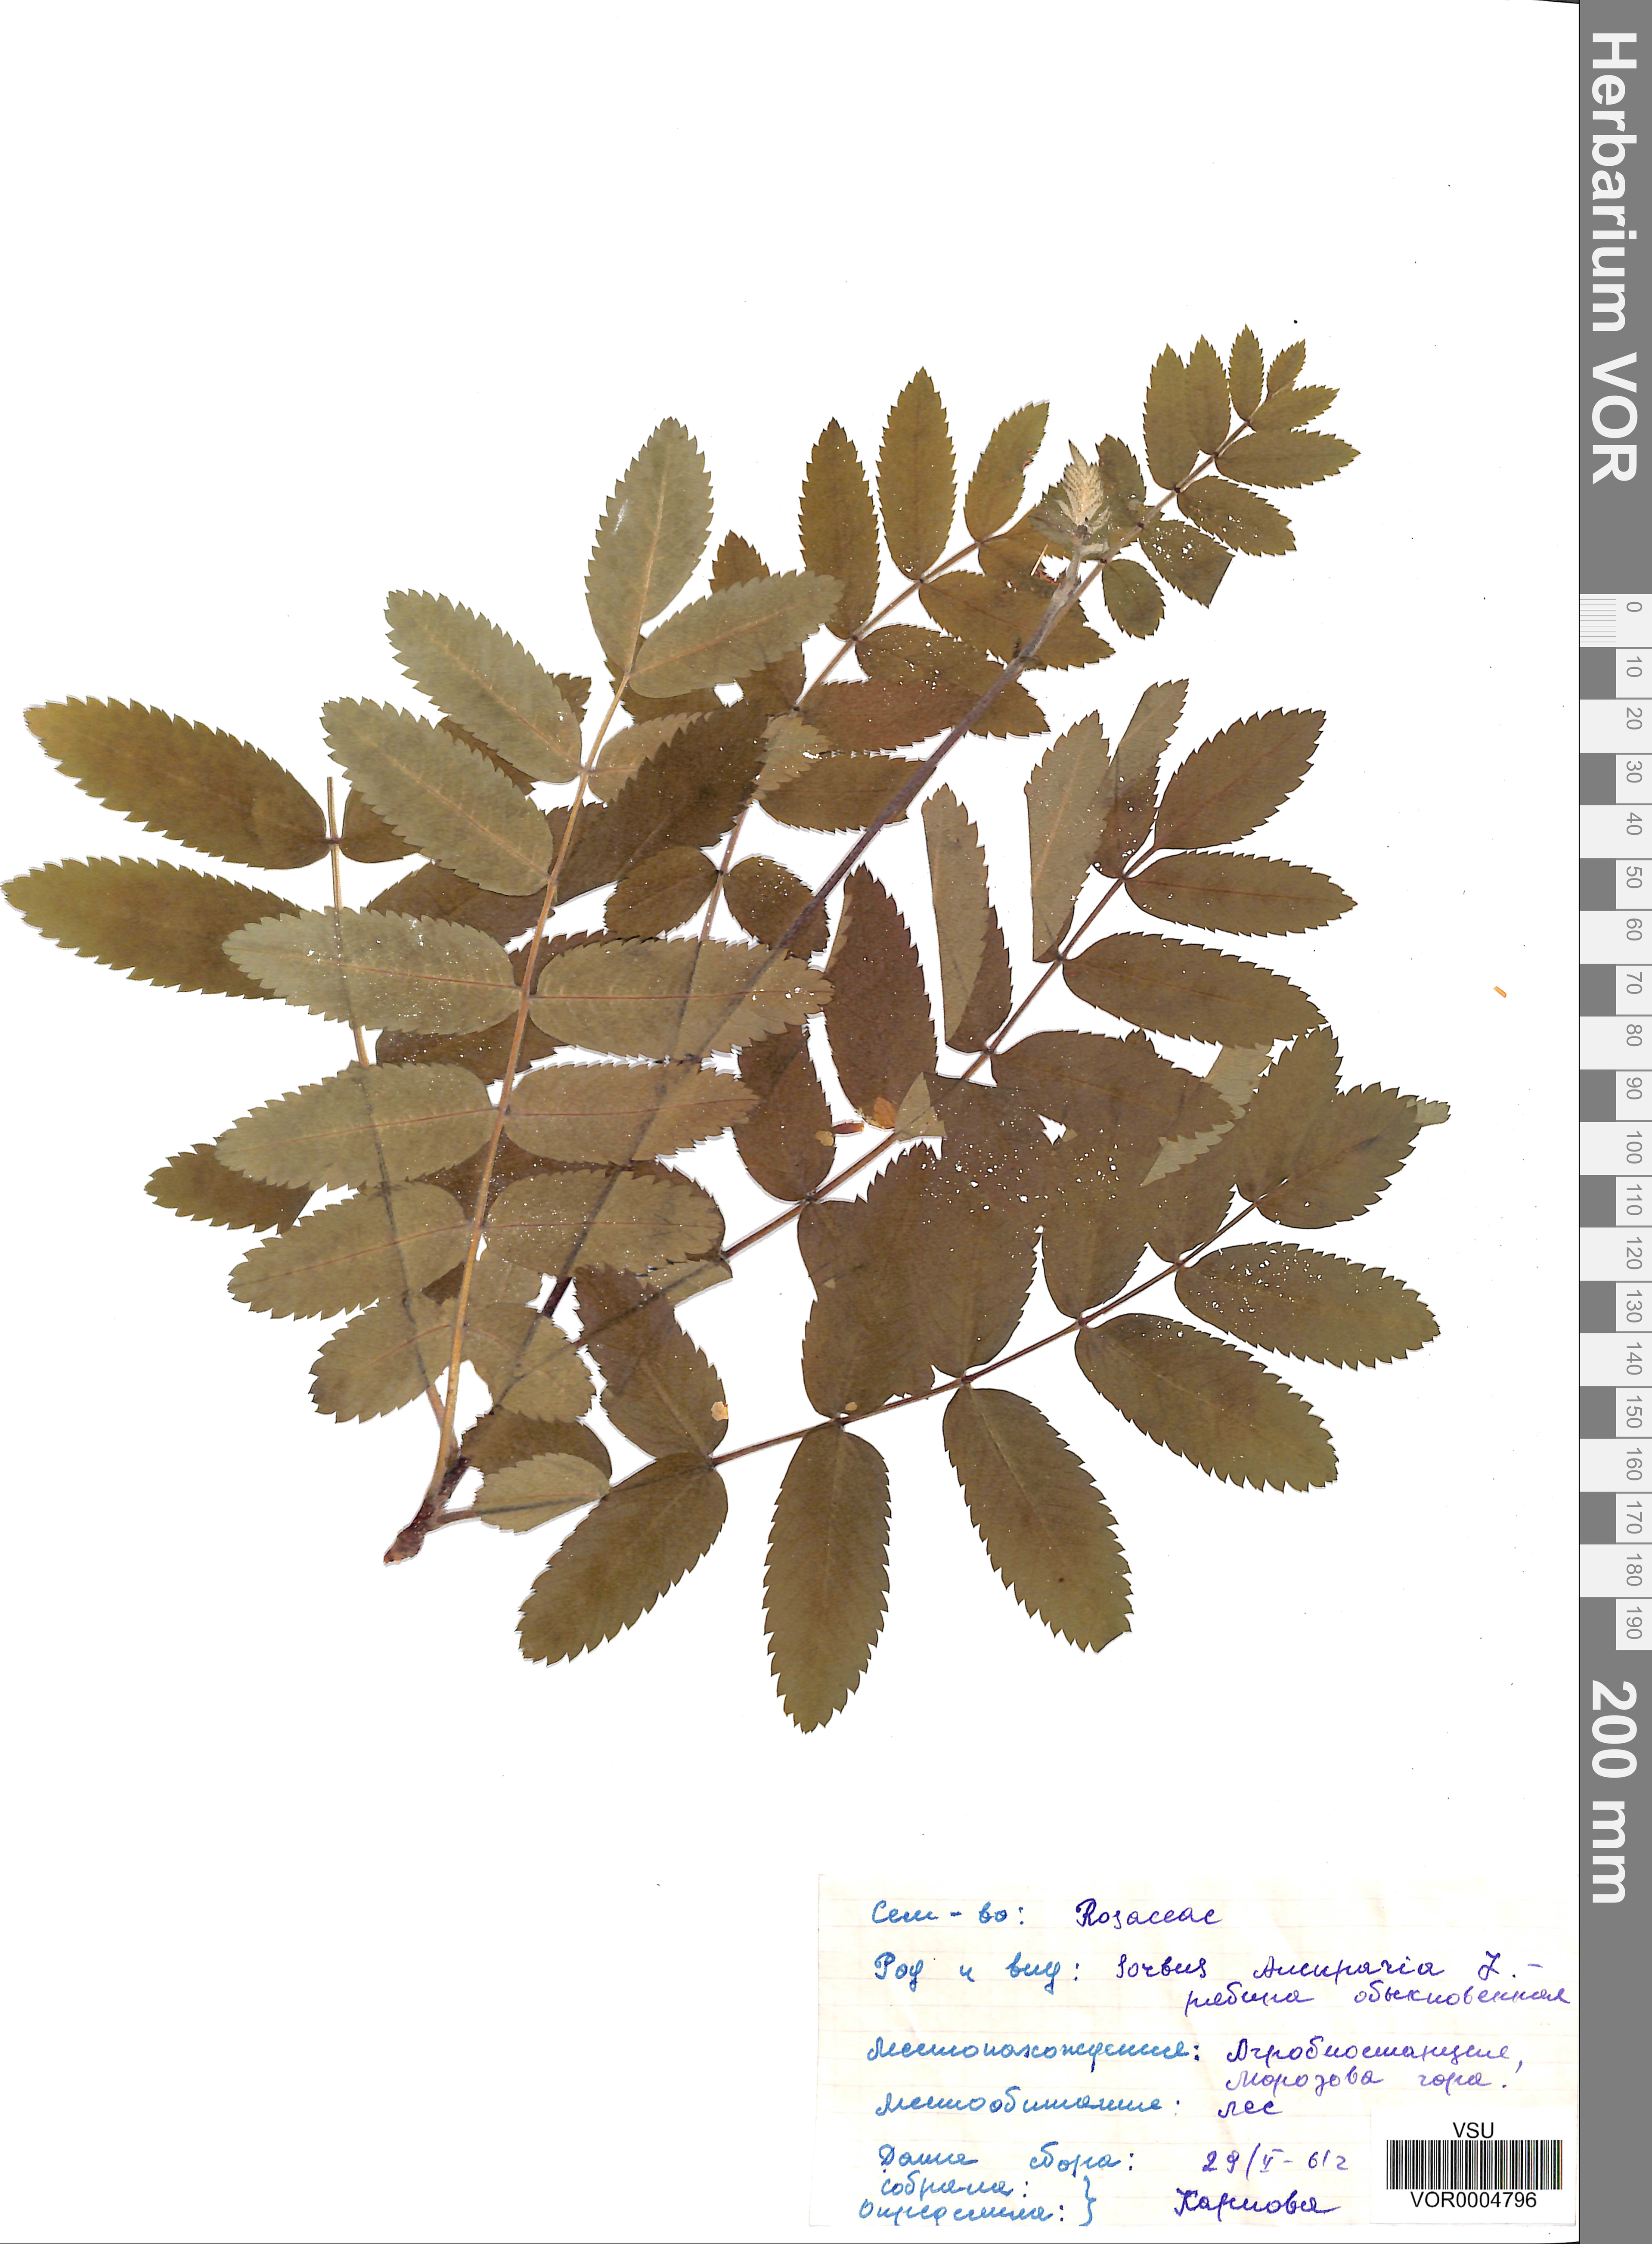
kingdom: Plantae
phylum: Tracheophyta
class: Magnoliopsida
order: Rosales
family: Rosaceae
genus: Sorbus
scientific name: Sorbus aucuparia
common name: Rowan
